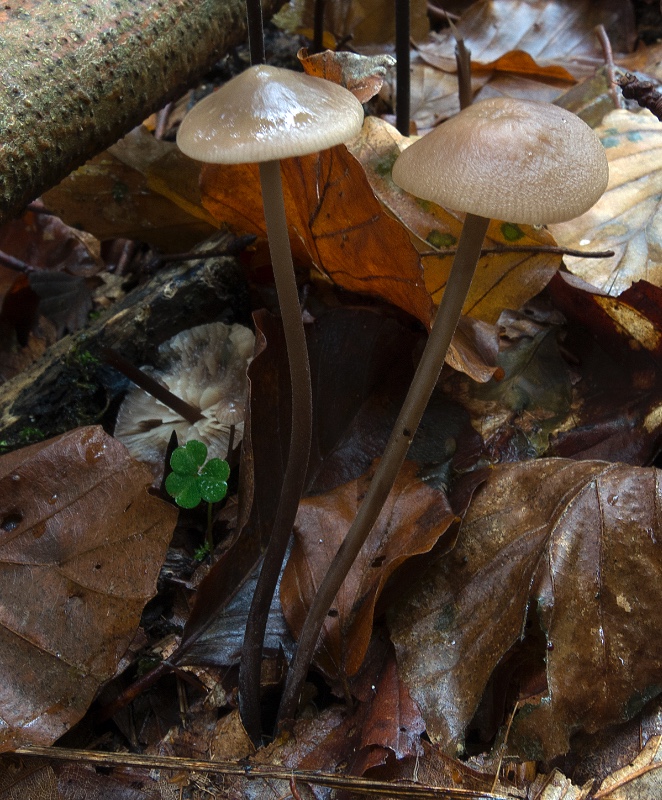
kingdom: Fungi
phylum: Basidiomycota
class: Agaricomycetes
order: Agaricales
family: Omphalotaceae
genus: Mycetinis
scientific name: Mycetinis alliaceus
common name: stor løghat
